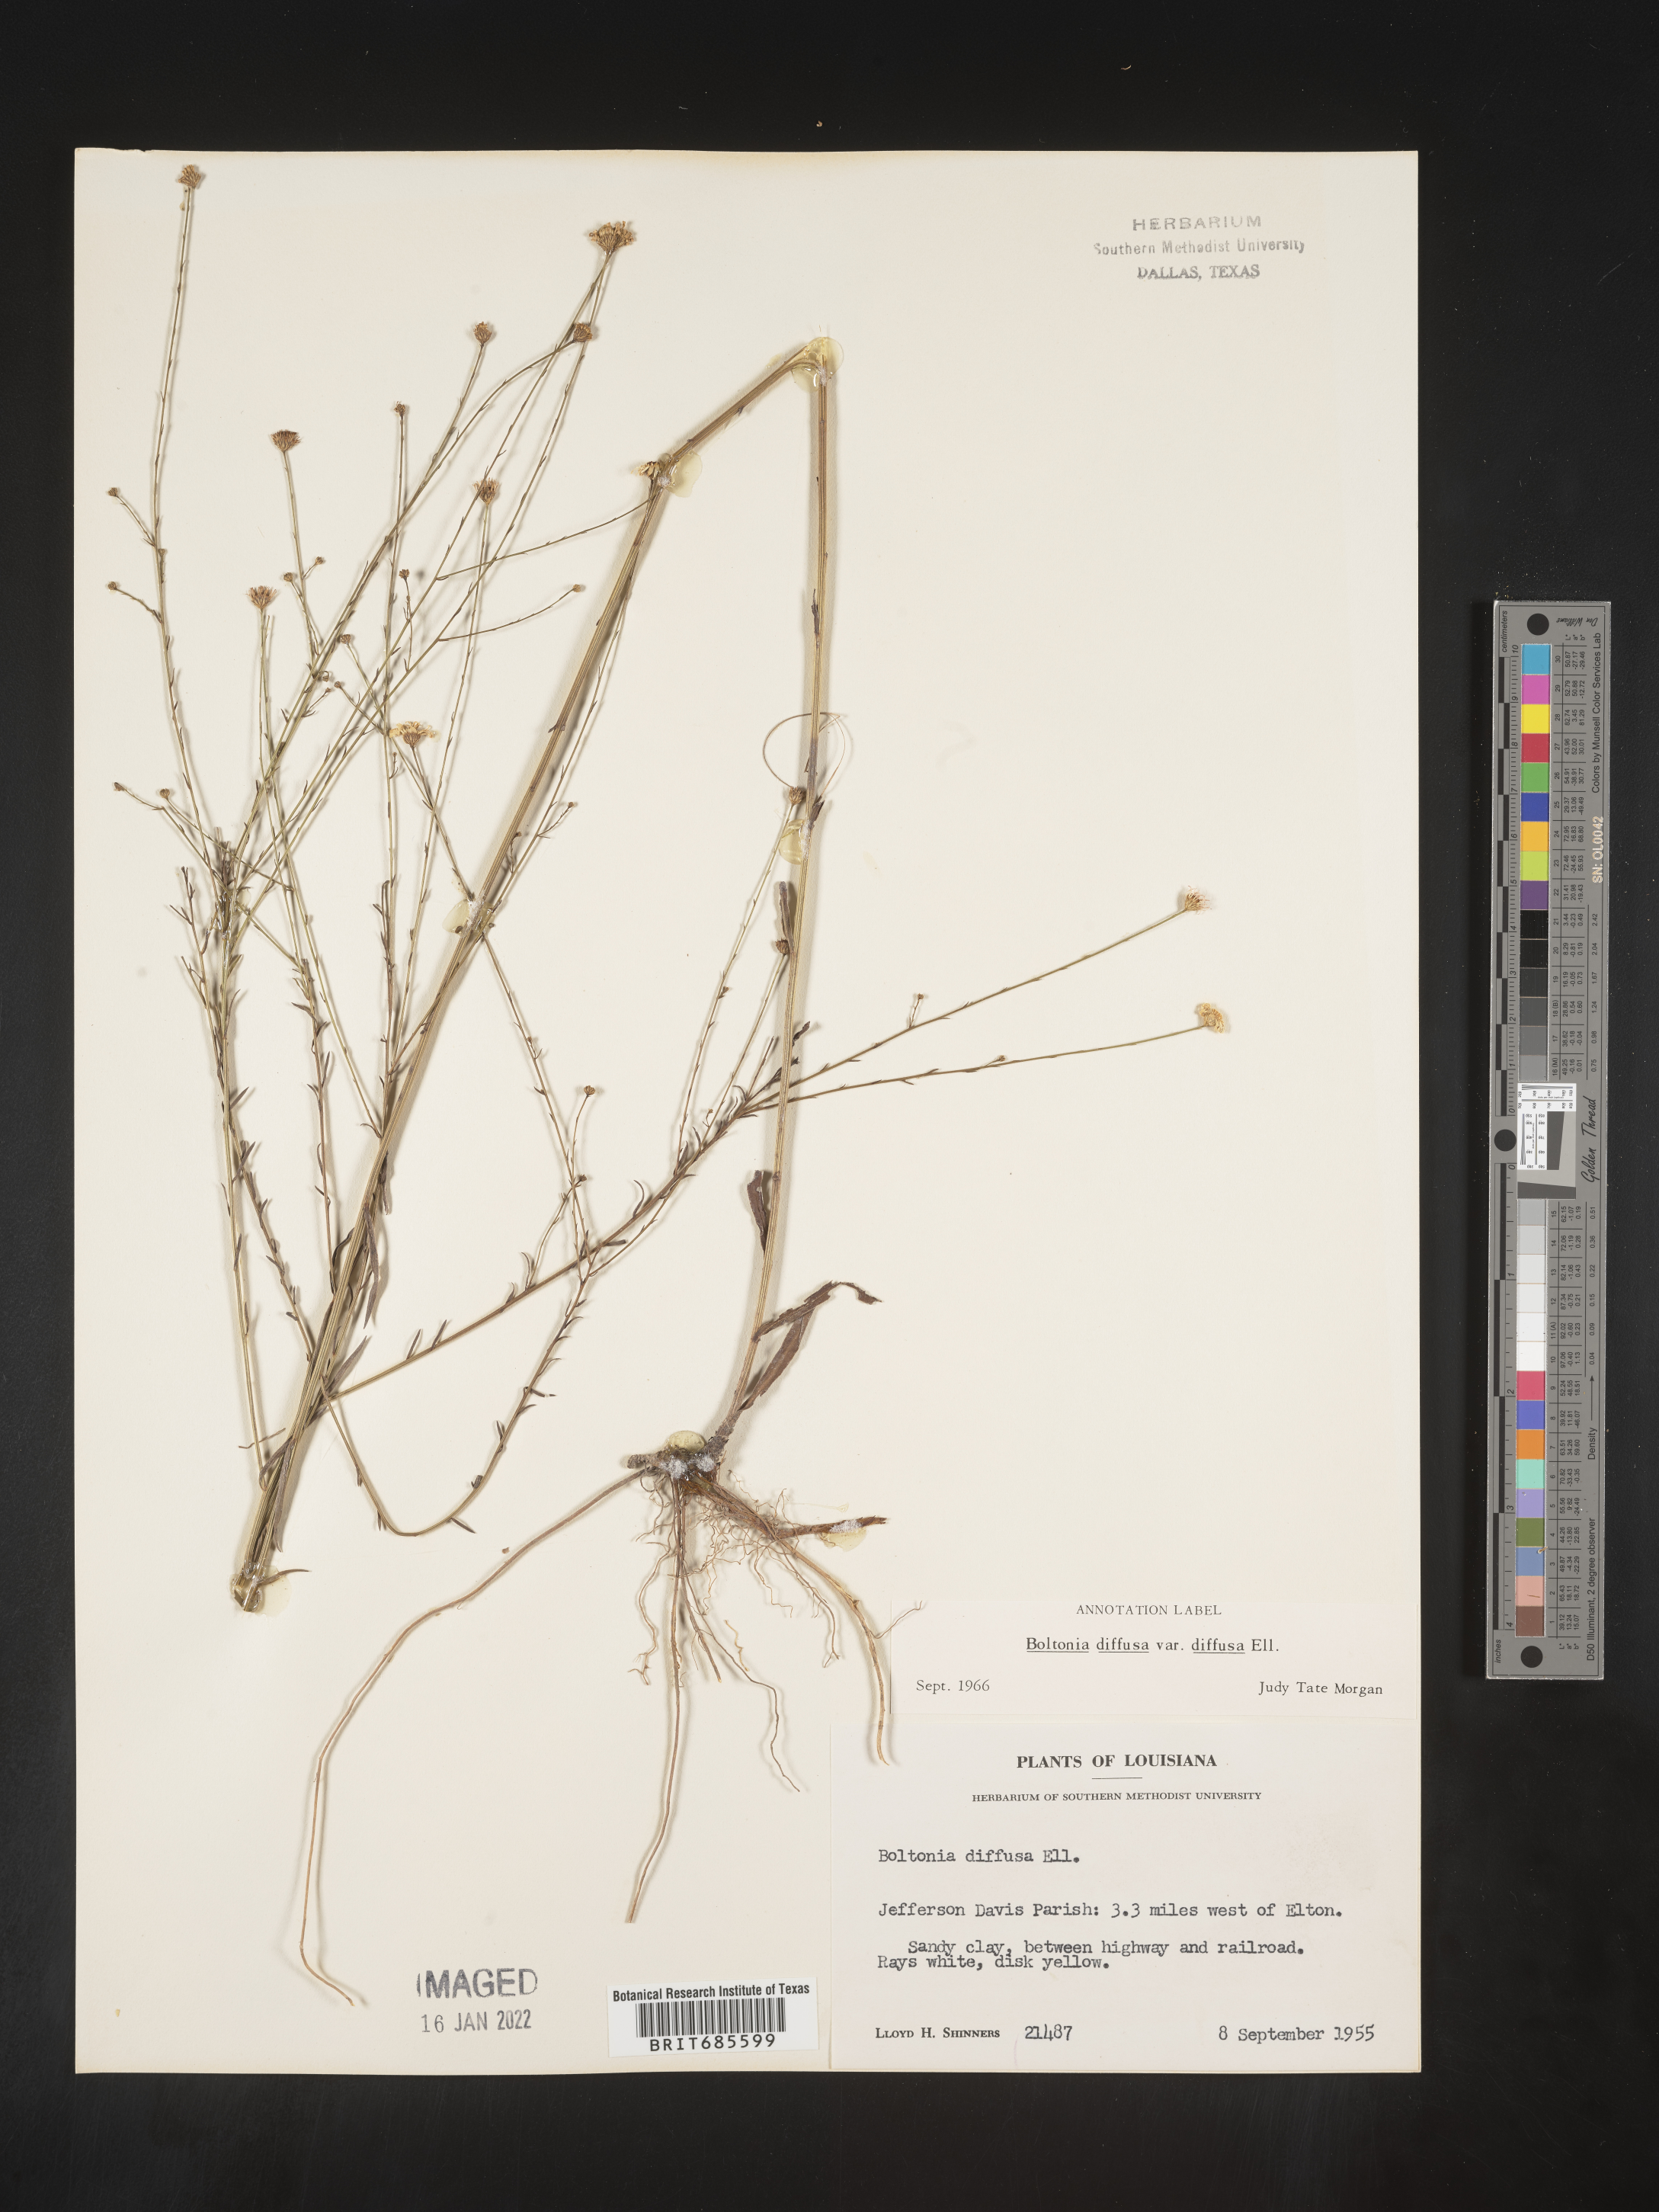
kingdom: Plantae
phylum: Tracheophyta
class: Magnoliopsida
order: Asterales
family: Asteraceae
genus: Boltonia
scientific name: Boltonia diffusa
